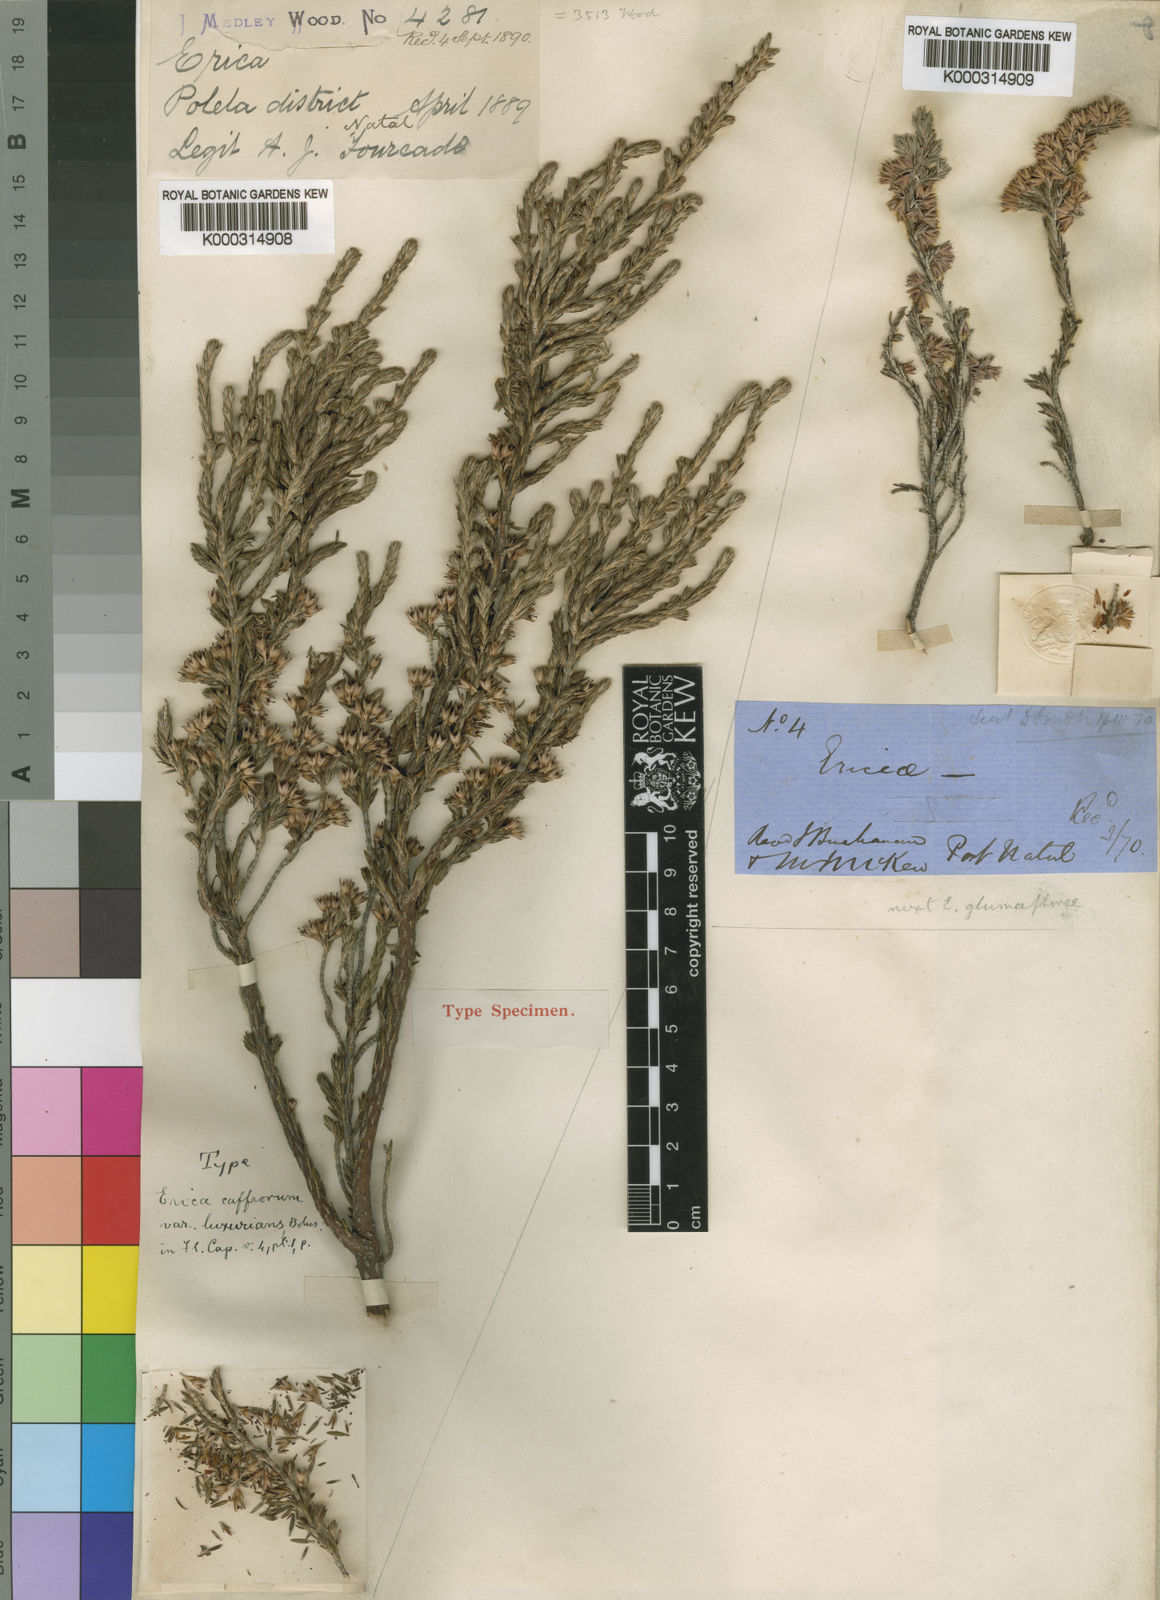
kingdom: Plantae
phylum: Tracheophyta
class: Magnoliopsida
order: Ericales
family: Ericaceae
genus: Erica
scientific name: Erica caffrorum
